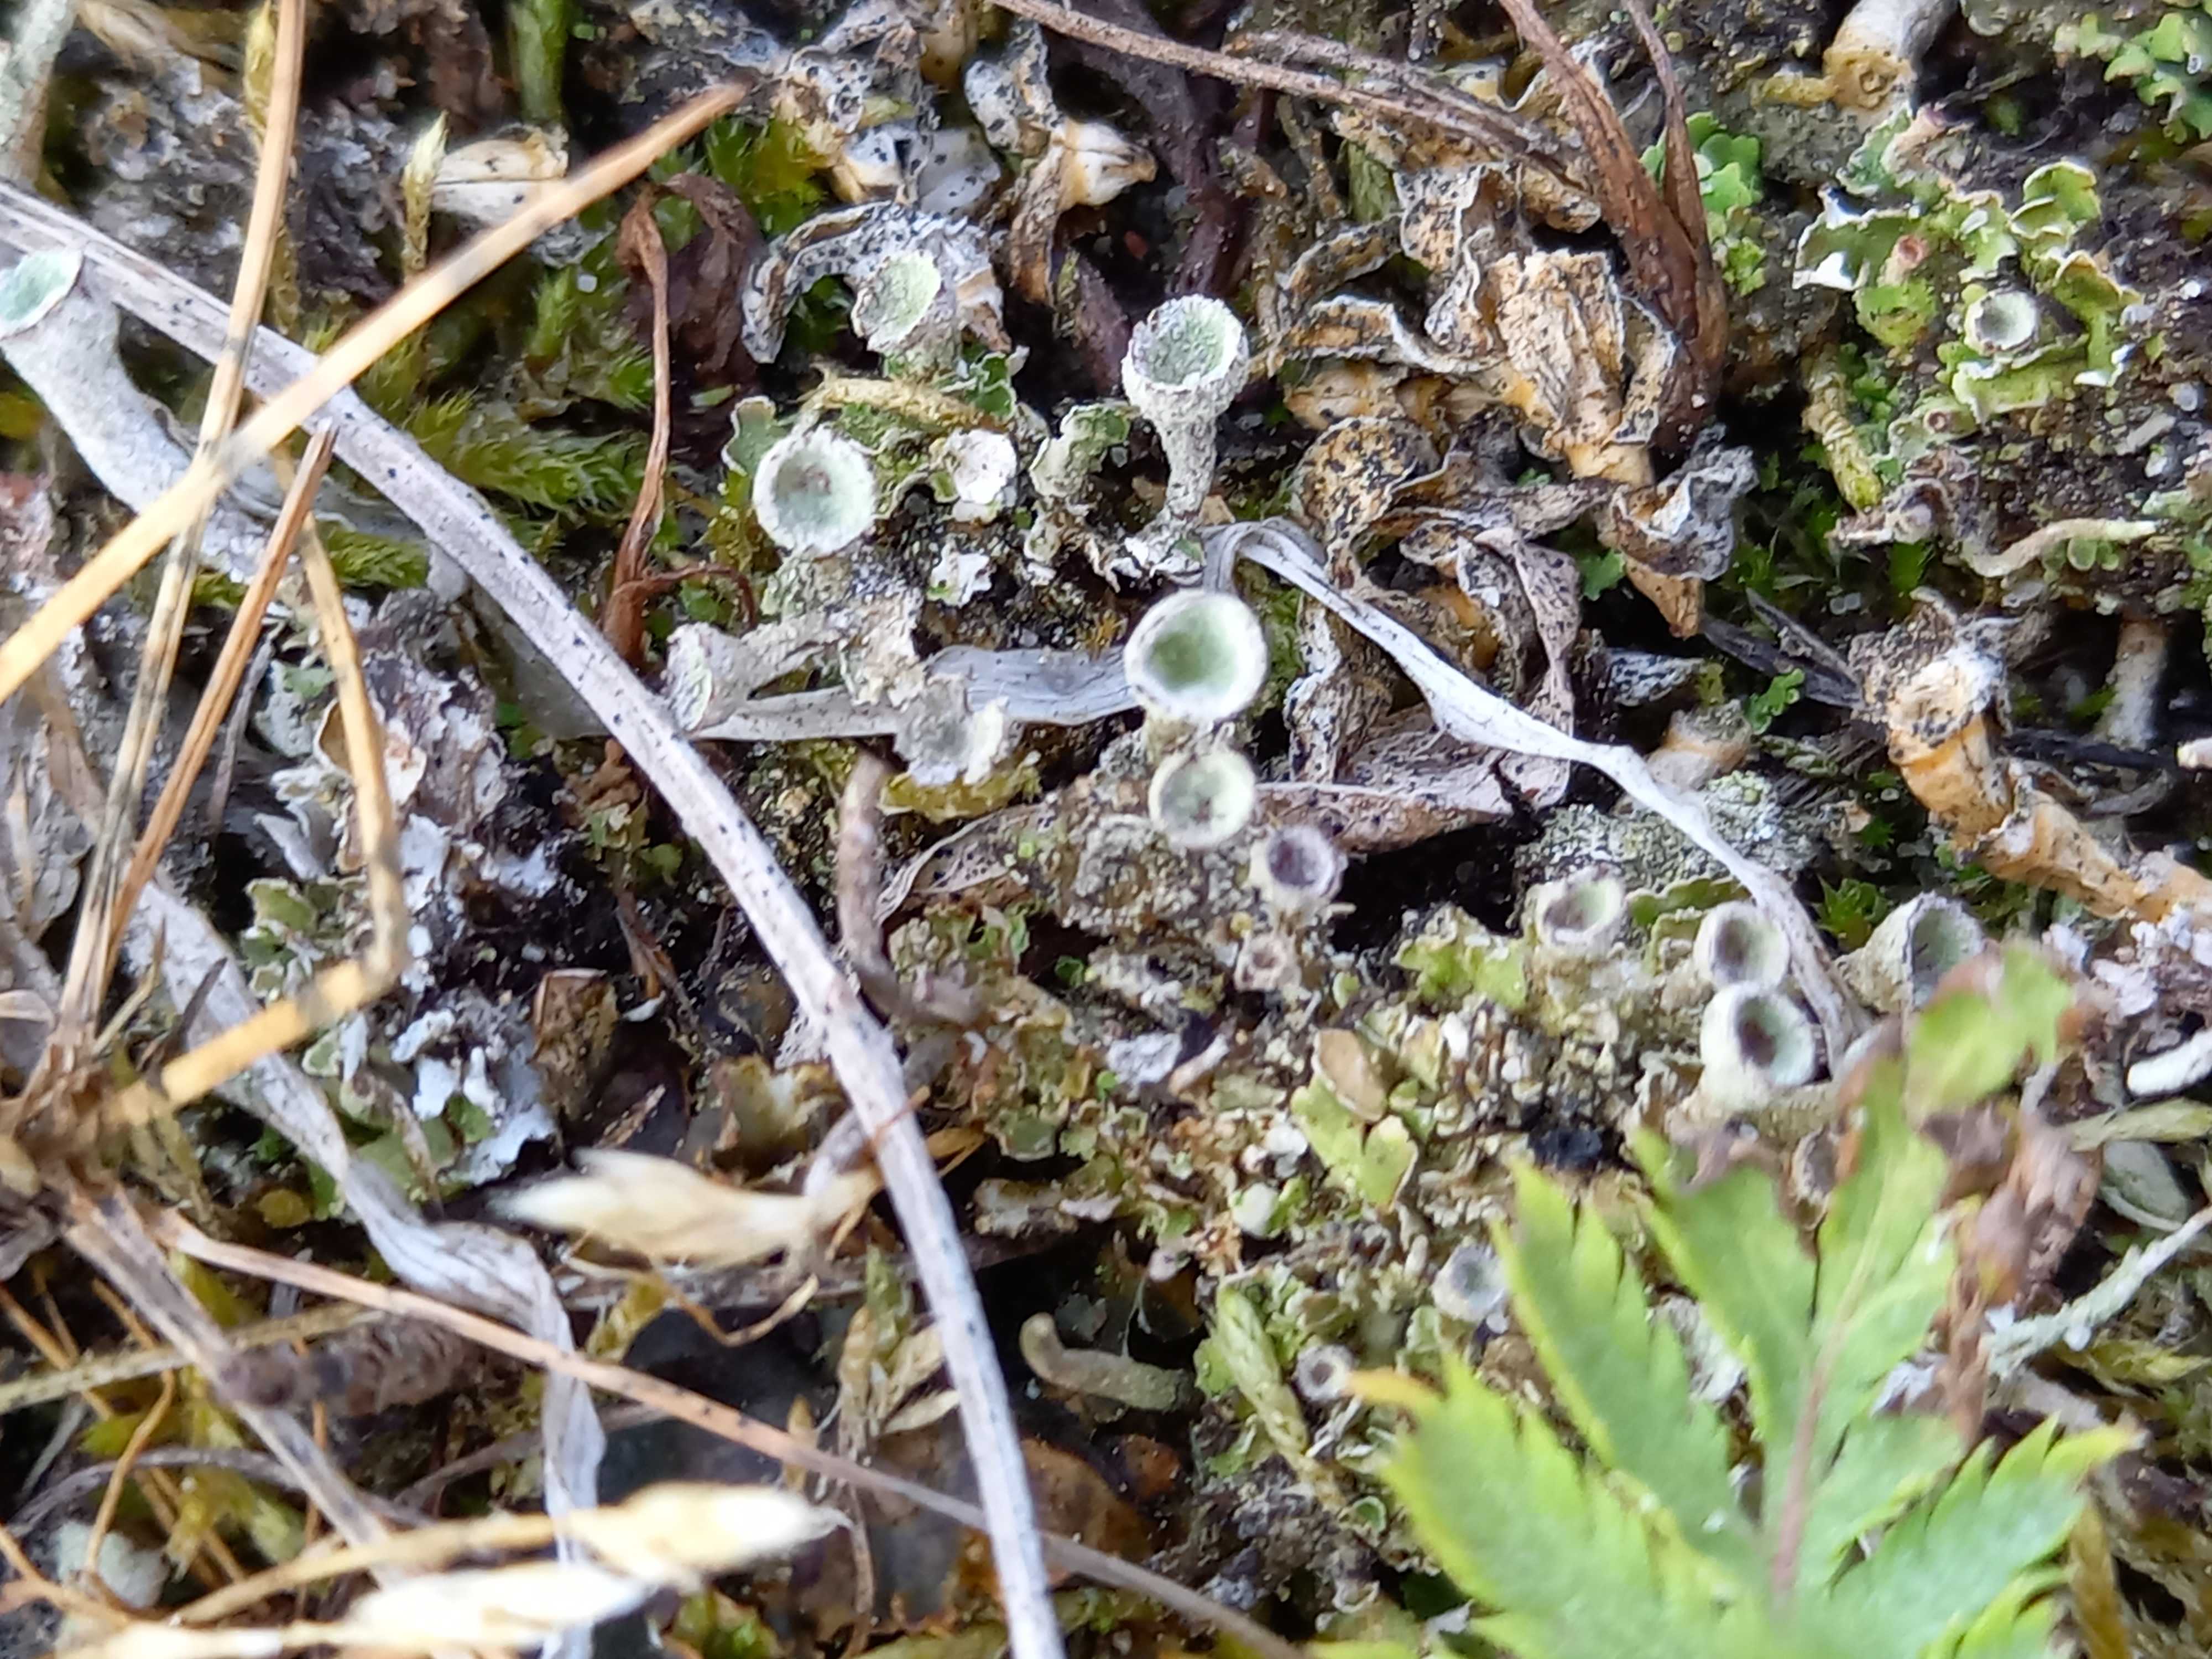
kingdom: Fungi
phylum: Ascomycota
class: Lecanoromycetes
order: Lecanorales
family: Cladoniaceae
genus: Cladonia
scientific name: Cladonia
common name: brungrøn bægerlav
